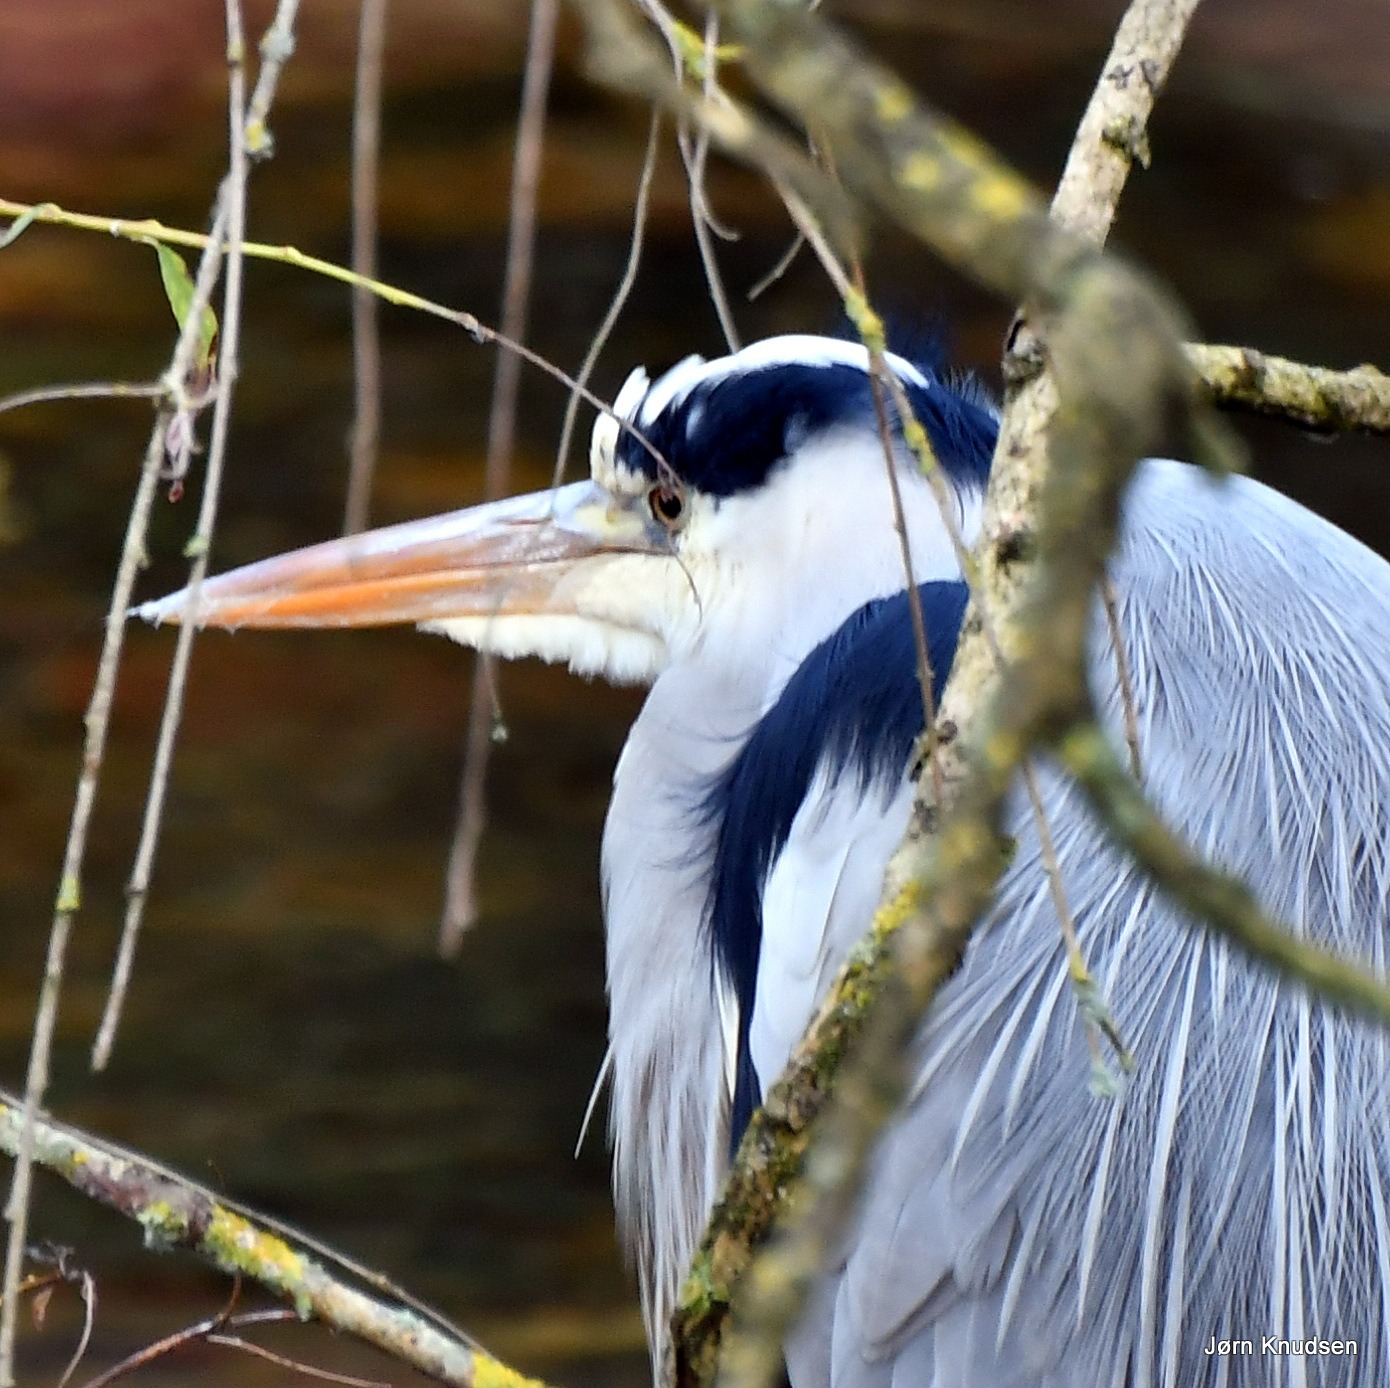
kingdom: Animalia
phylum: Chordata
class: Aves
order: Pelecaniformes
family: Ardeidae
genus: Ardea
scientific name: Ardea cinerea
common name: Fiskehejre
